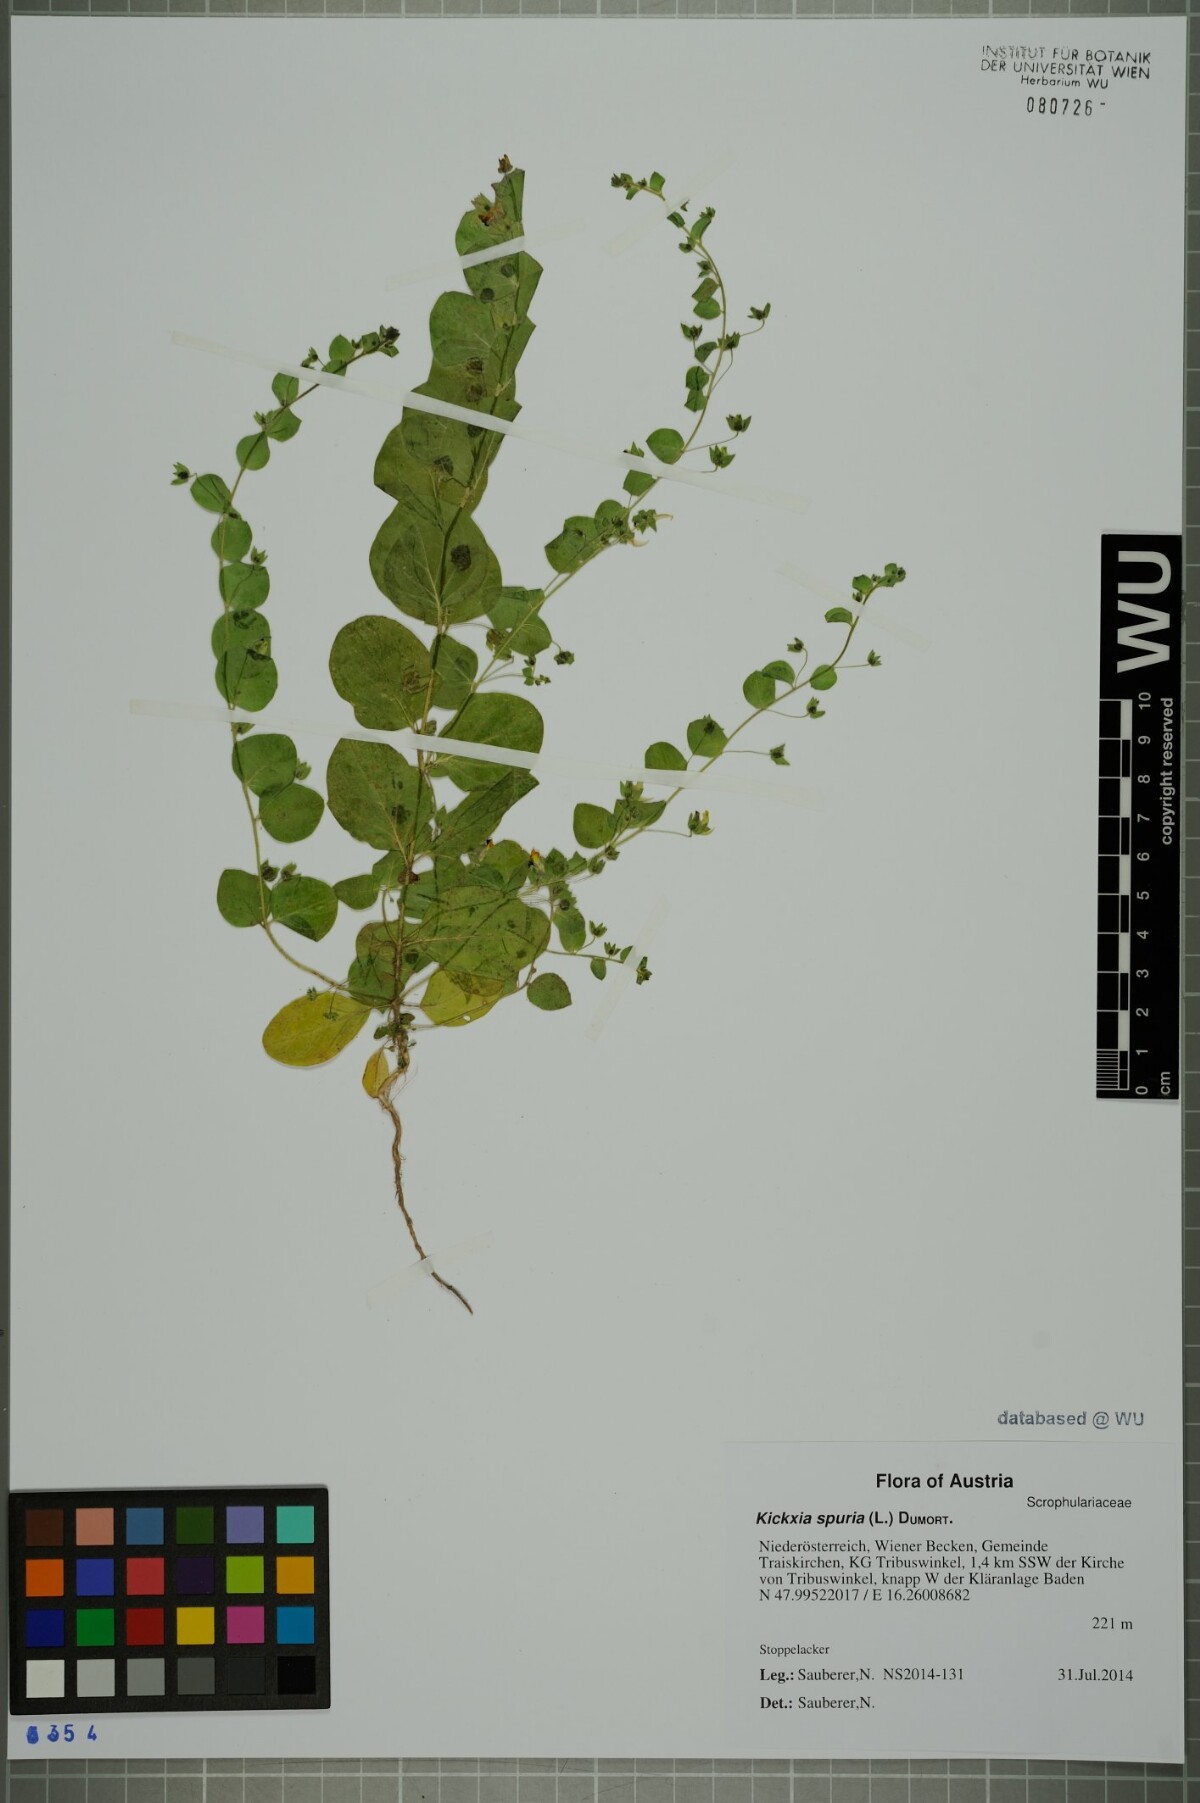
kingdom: Plantae
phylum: Tracheophyta
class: Magnoliopsida
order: Lamiales
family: Plantaginaceae
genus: Kickxia
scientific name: Kickxia spuria
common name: Round-leaved fluellen
